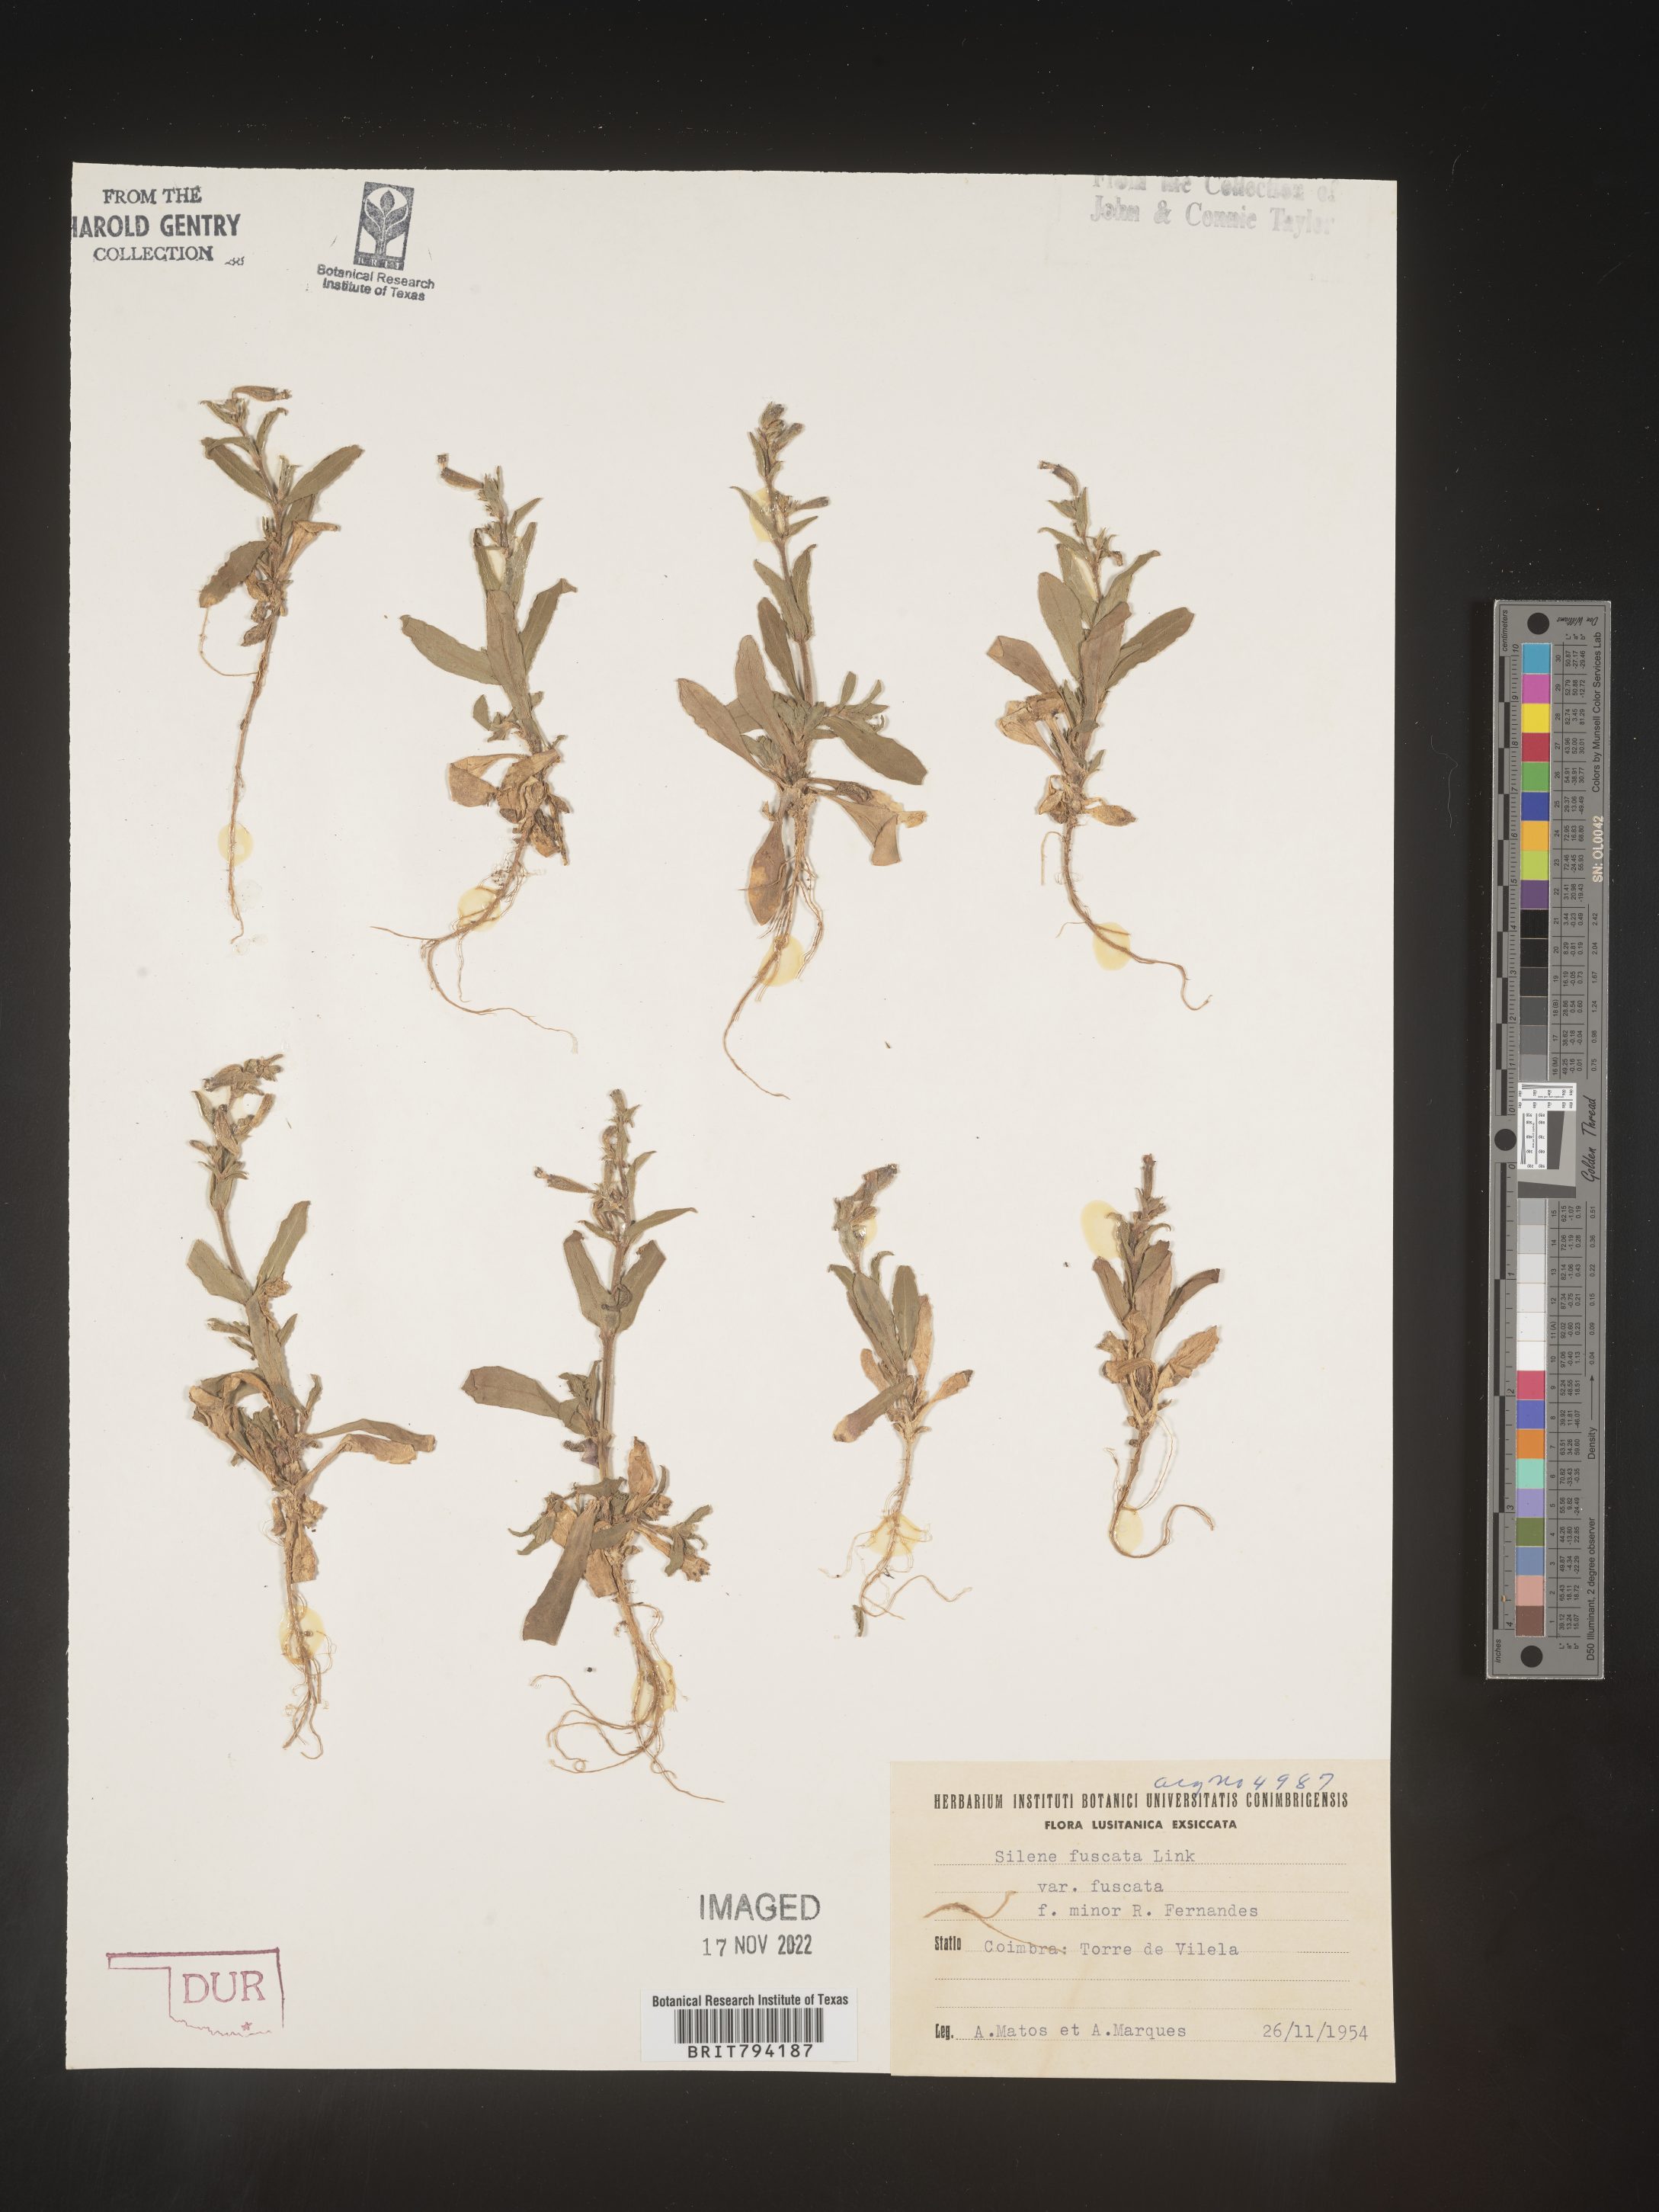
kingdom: Plantae
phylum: Tracheophyta
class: Magnoliopsida
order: Caryophyllales
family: Caryophyllaceae
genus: Silene
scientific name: Silene fuscata
